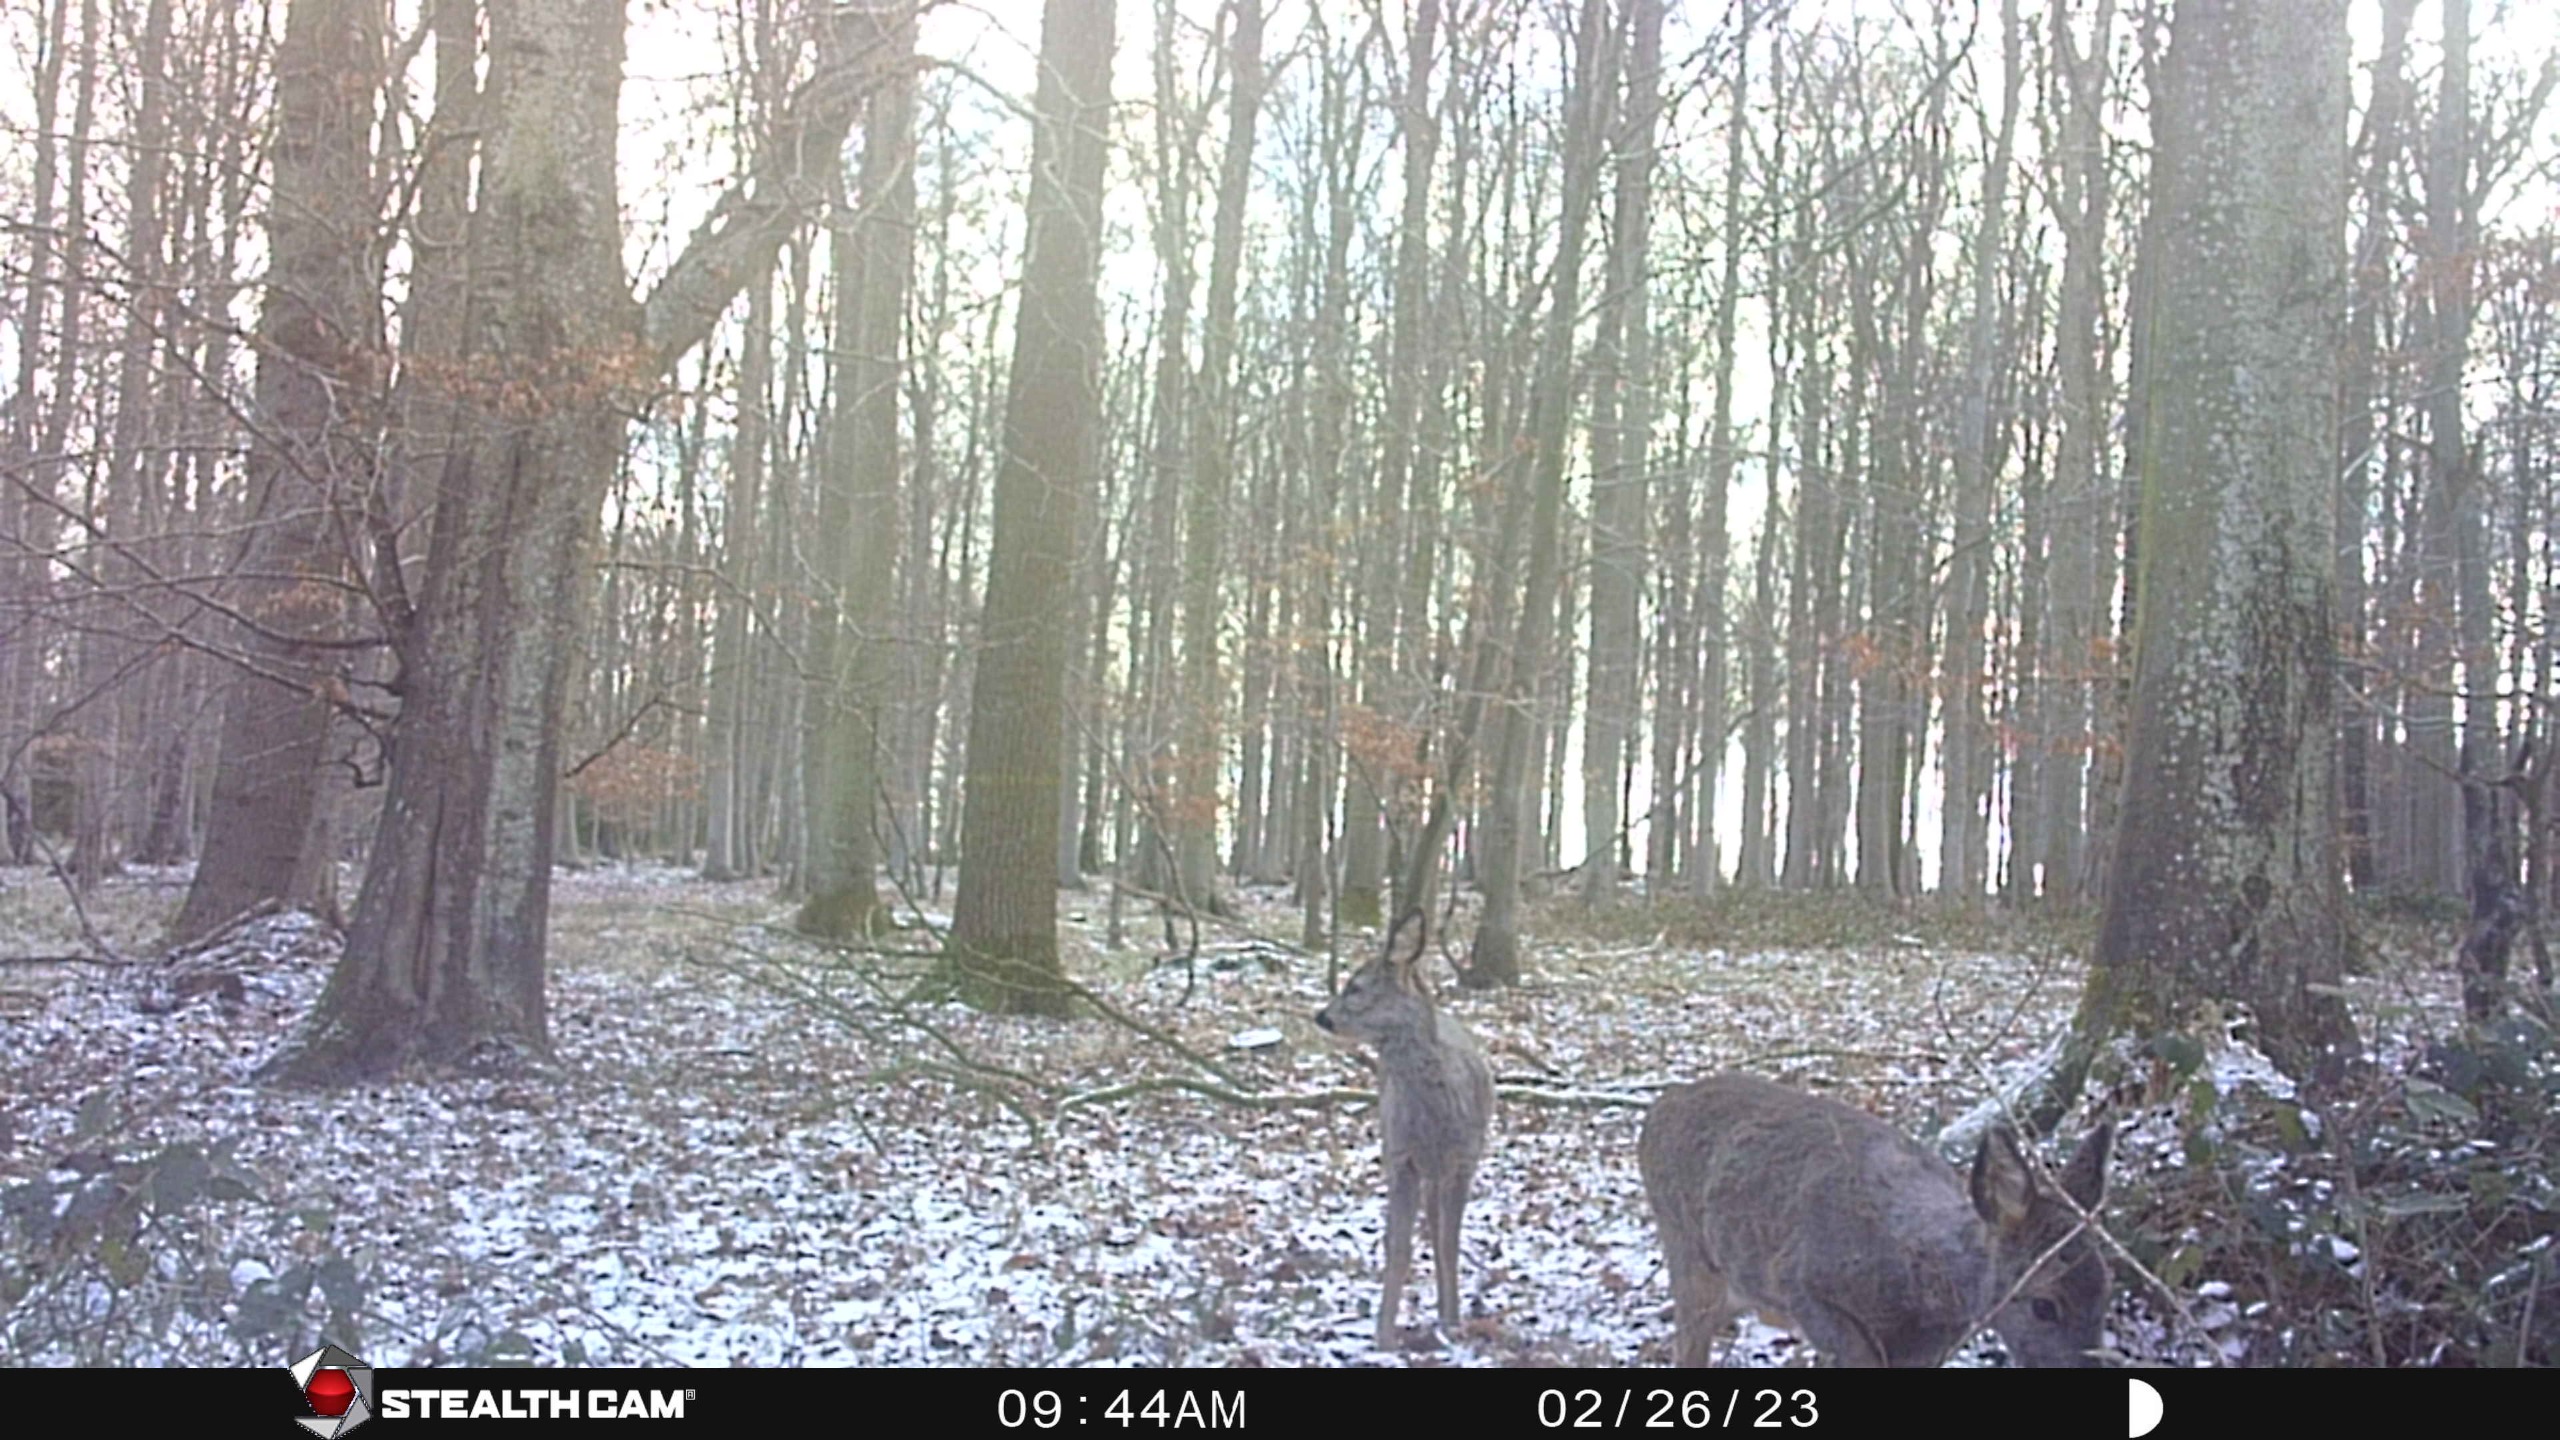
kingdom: Animalia
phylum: Chordata
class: Mammalia
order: Artiodactyla
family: Cervidae
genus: Capreolus
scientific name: Capreolus capreolus
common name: Rådyr
